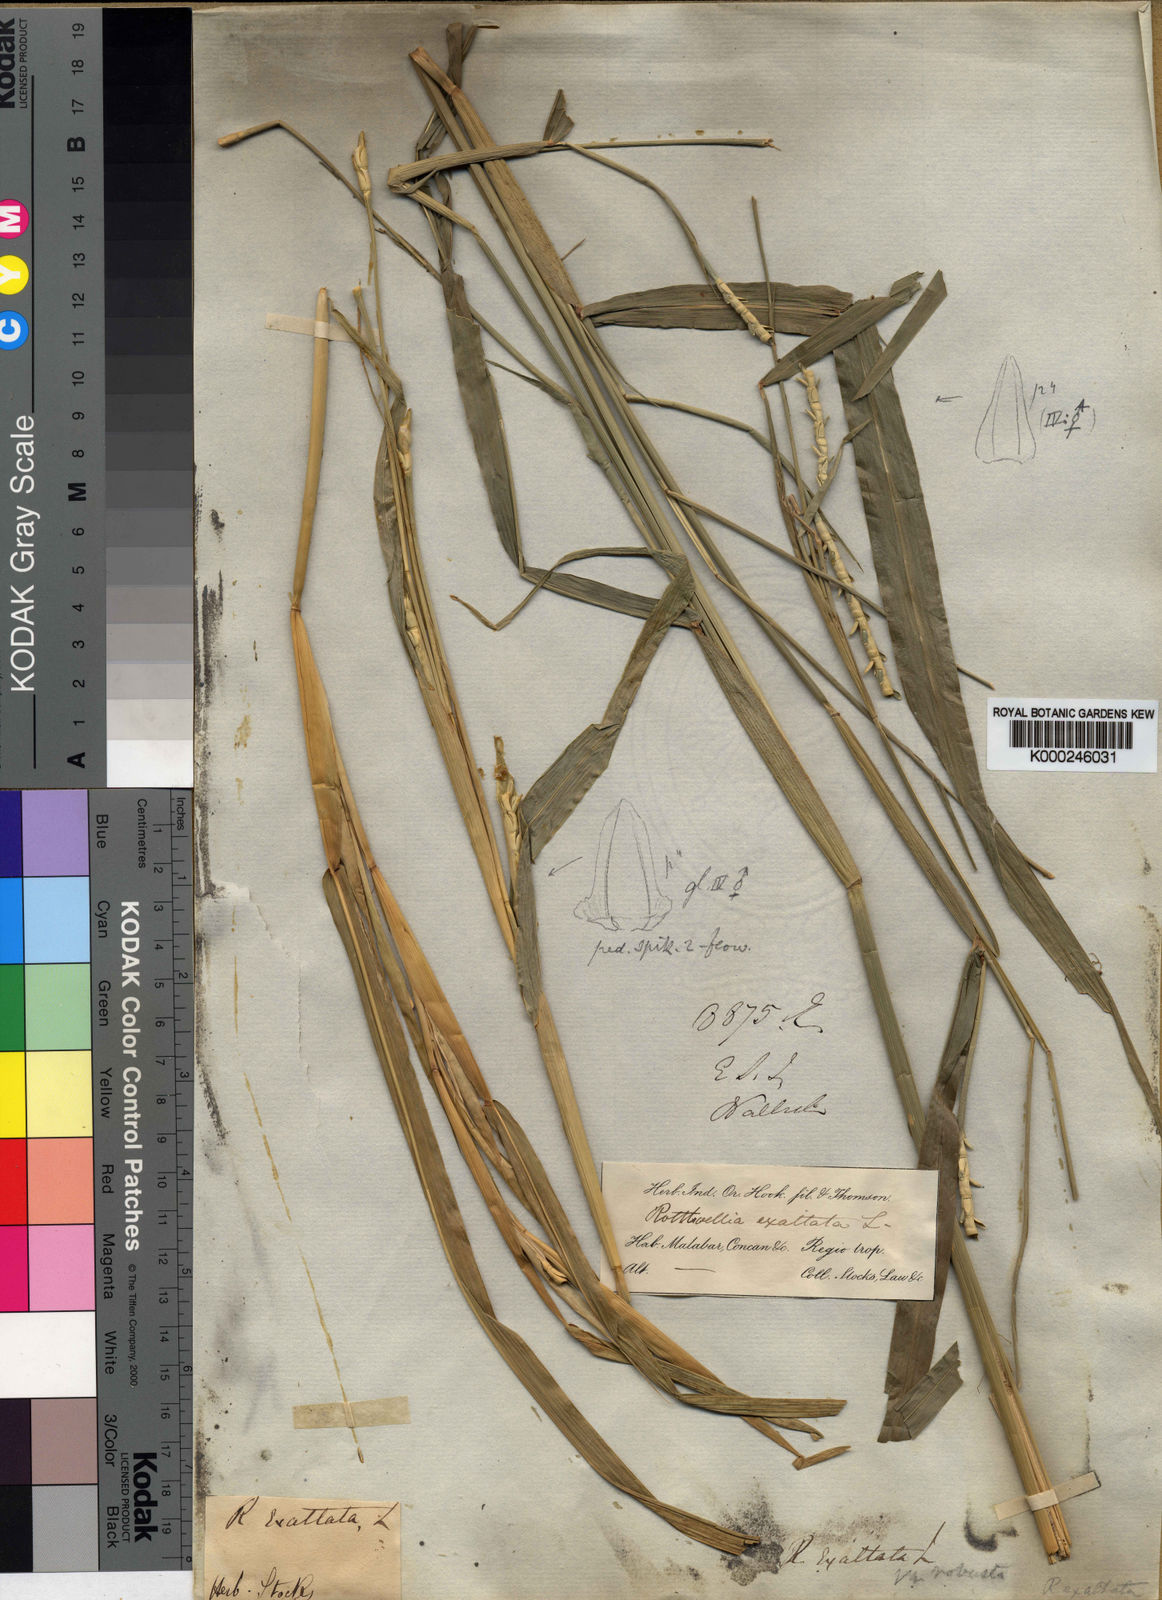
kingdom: Plantae
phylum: Tracheophyta
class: Liliopsida
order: Poales
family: Poaceae
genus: Rottboellia
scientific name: Rottboellia cochinchinensis
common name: Itchgrass
